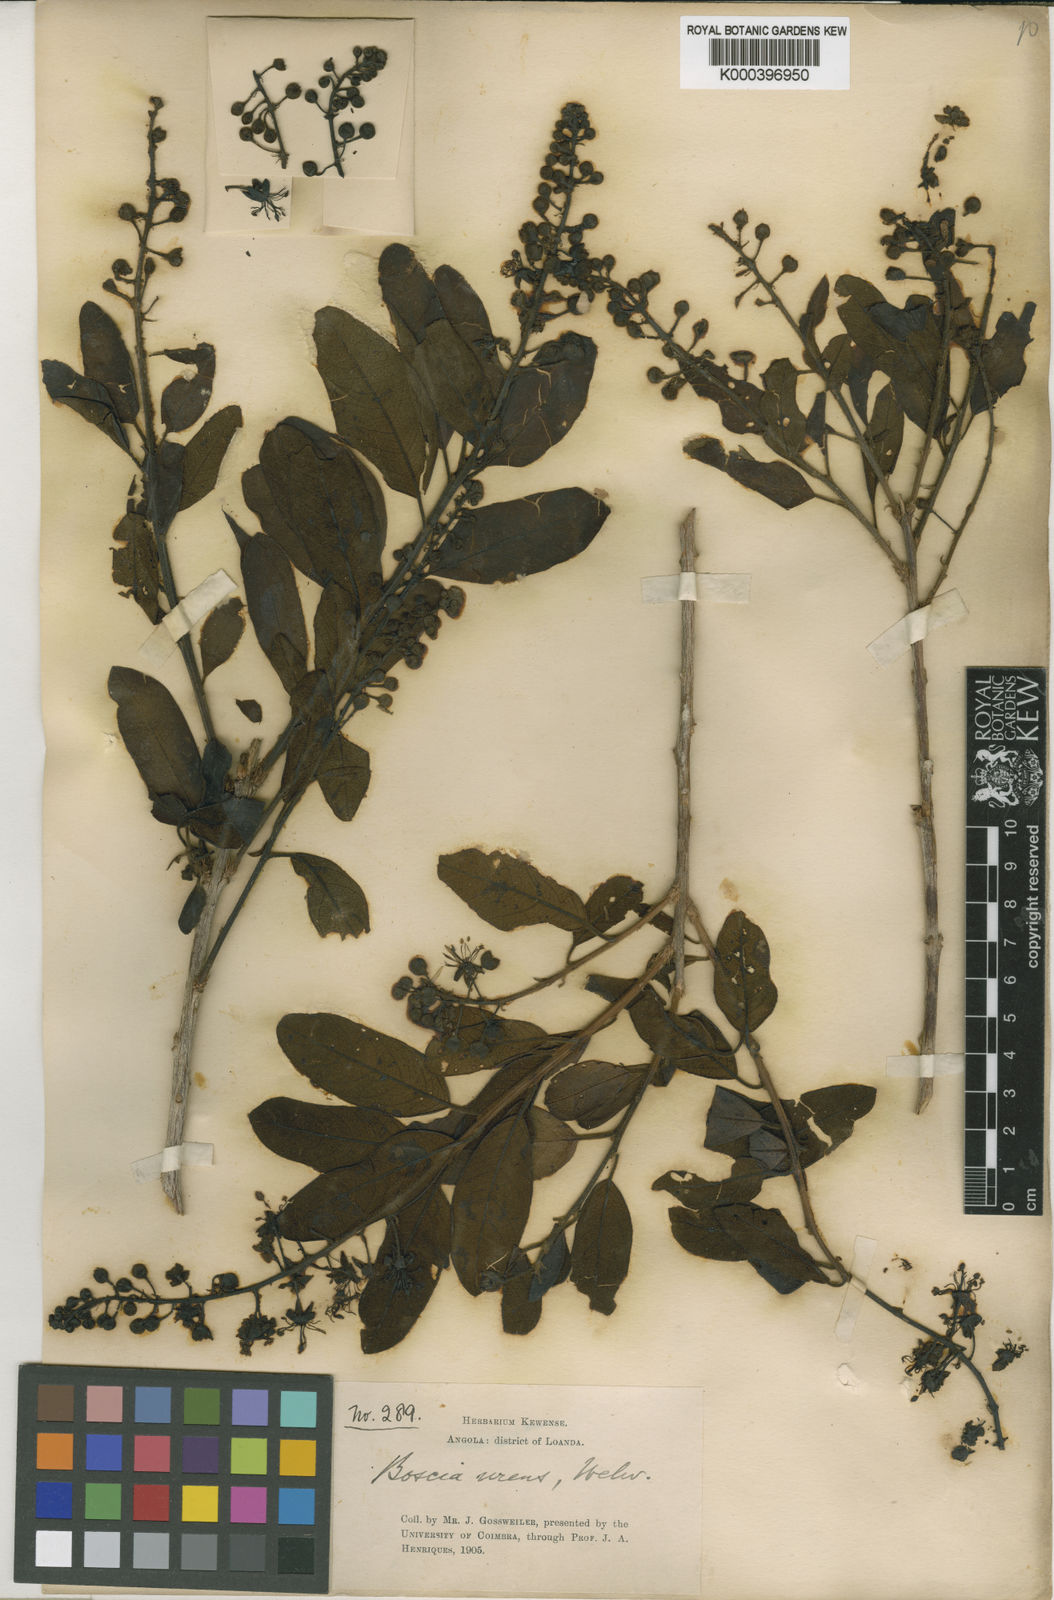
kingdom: Plantae
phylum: Tracheophyta
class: Magnoliopsida
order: Brassicales
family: Capparaceae
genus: Boscia
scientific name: Boscia
